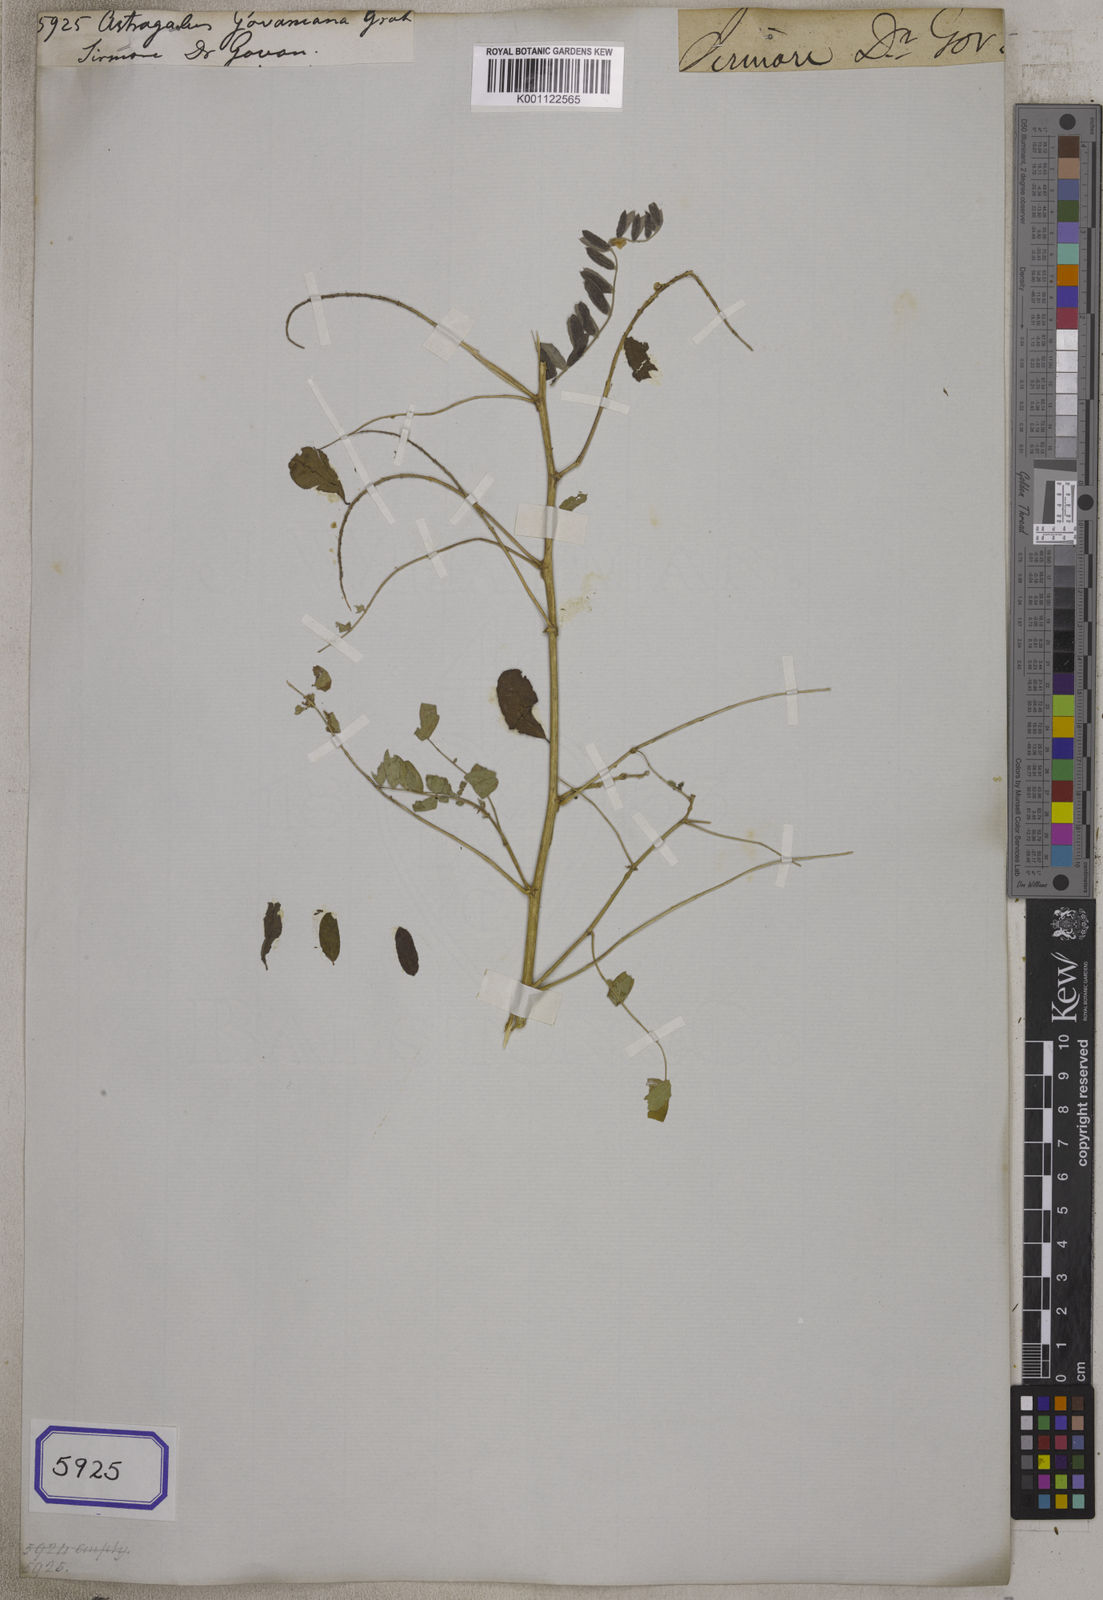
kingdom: Plantae
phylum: Tracheophyta
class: Magnoliopsida
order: Fabales
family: Fabaceae
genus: Astragalus
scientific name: Astragalus chlorostachys
